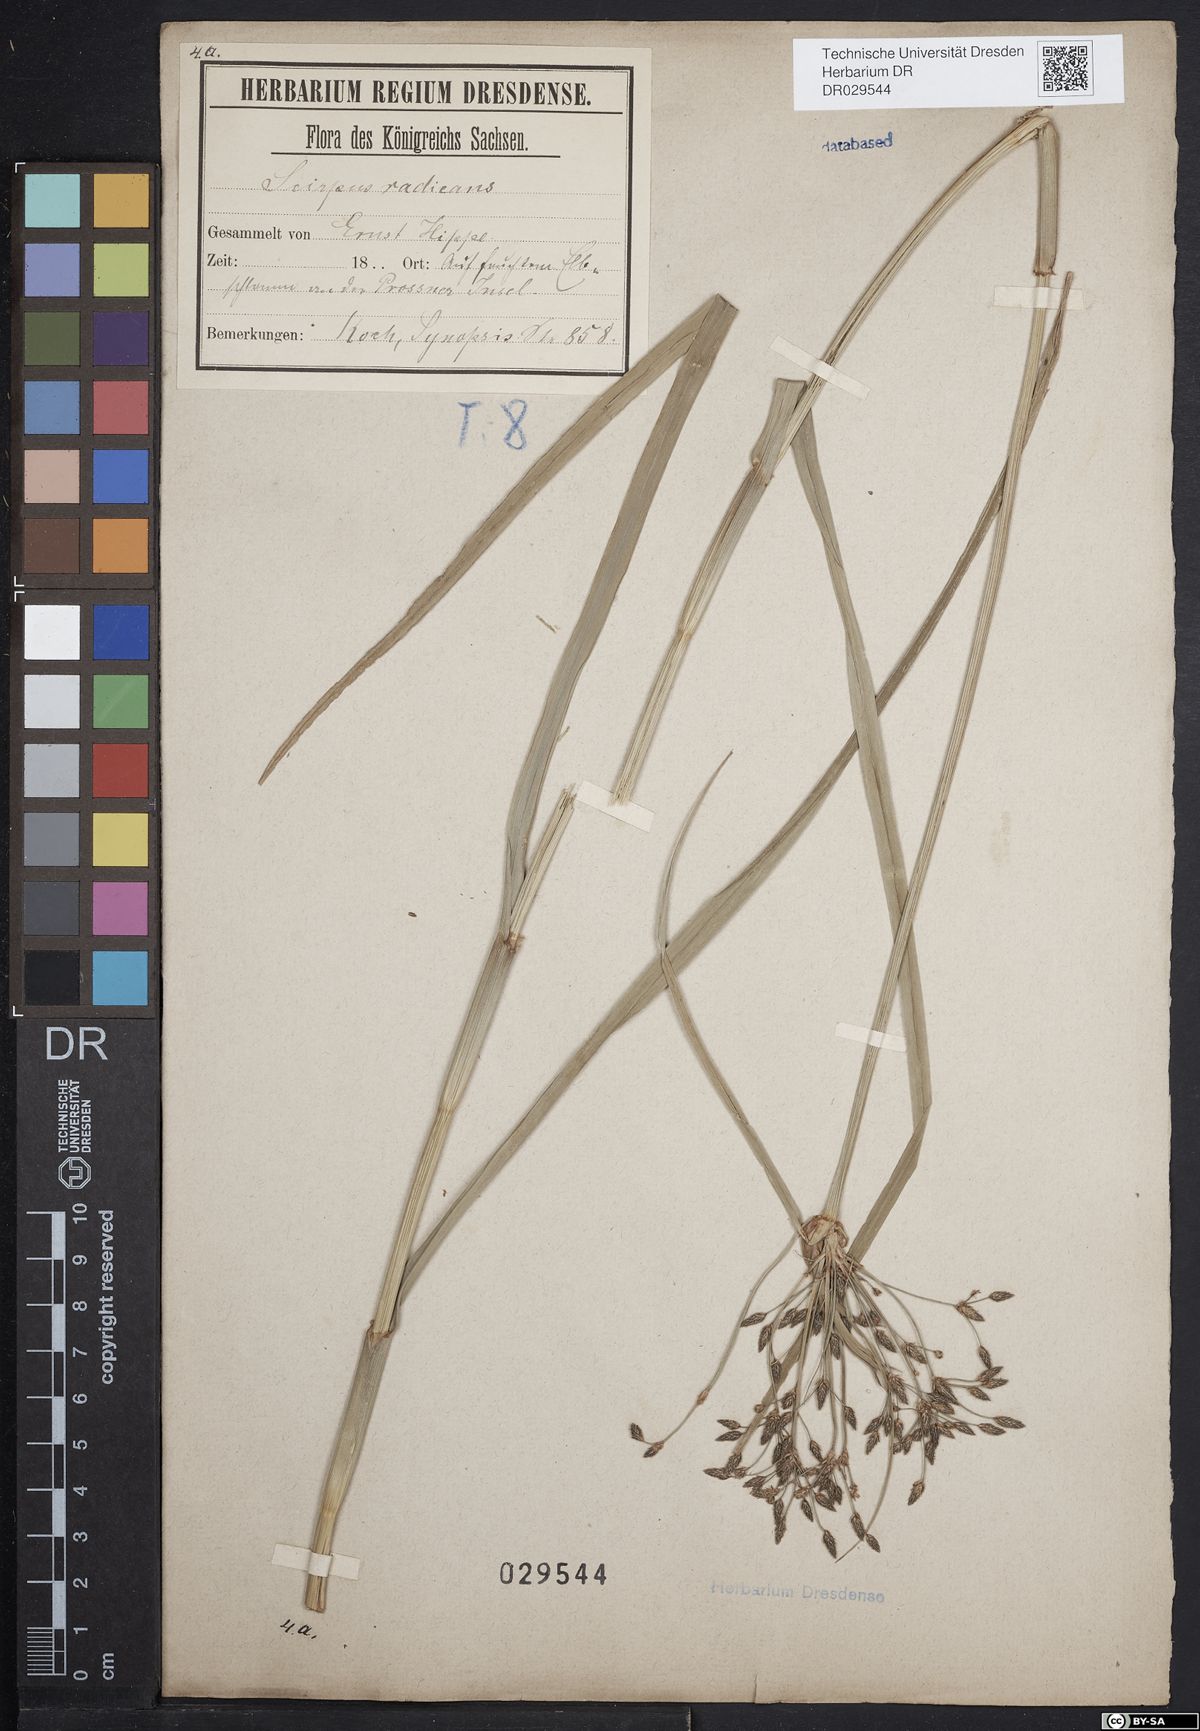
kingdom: Plantae
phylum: Tracheophyta
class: Liliopsida
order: Poales
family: Cyperaceae
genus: Scirpus
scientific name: Scirpus radicans
